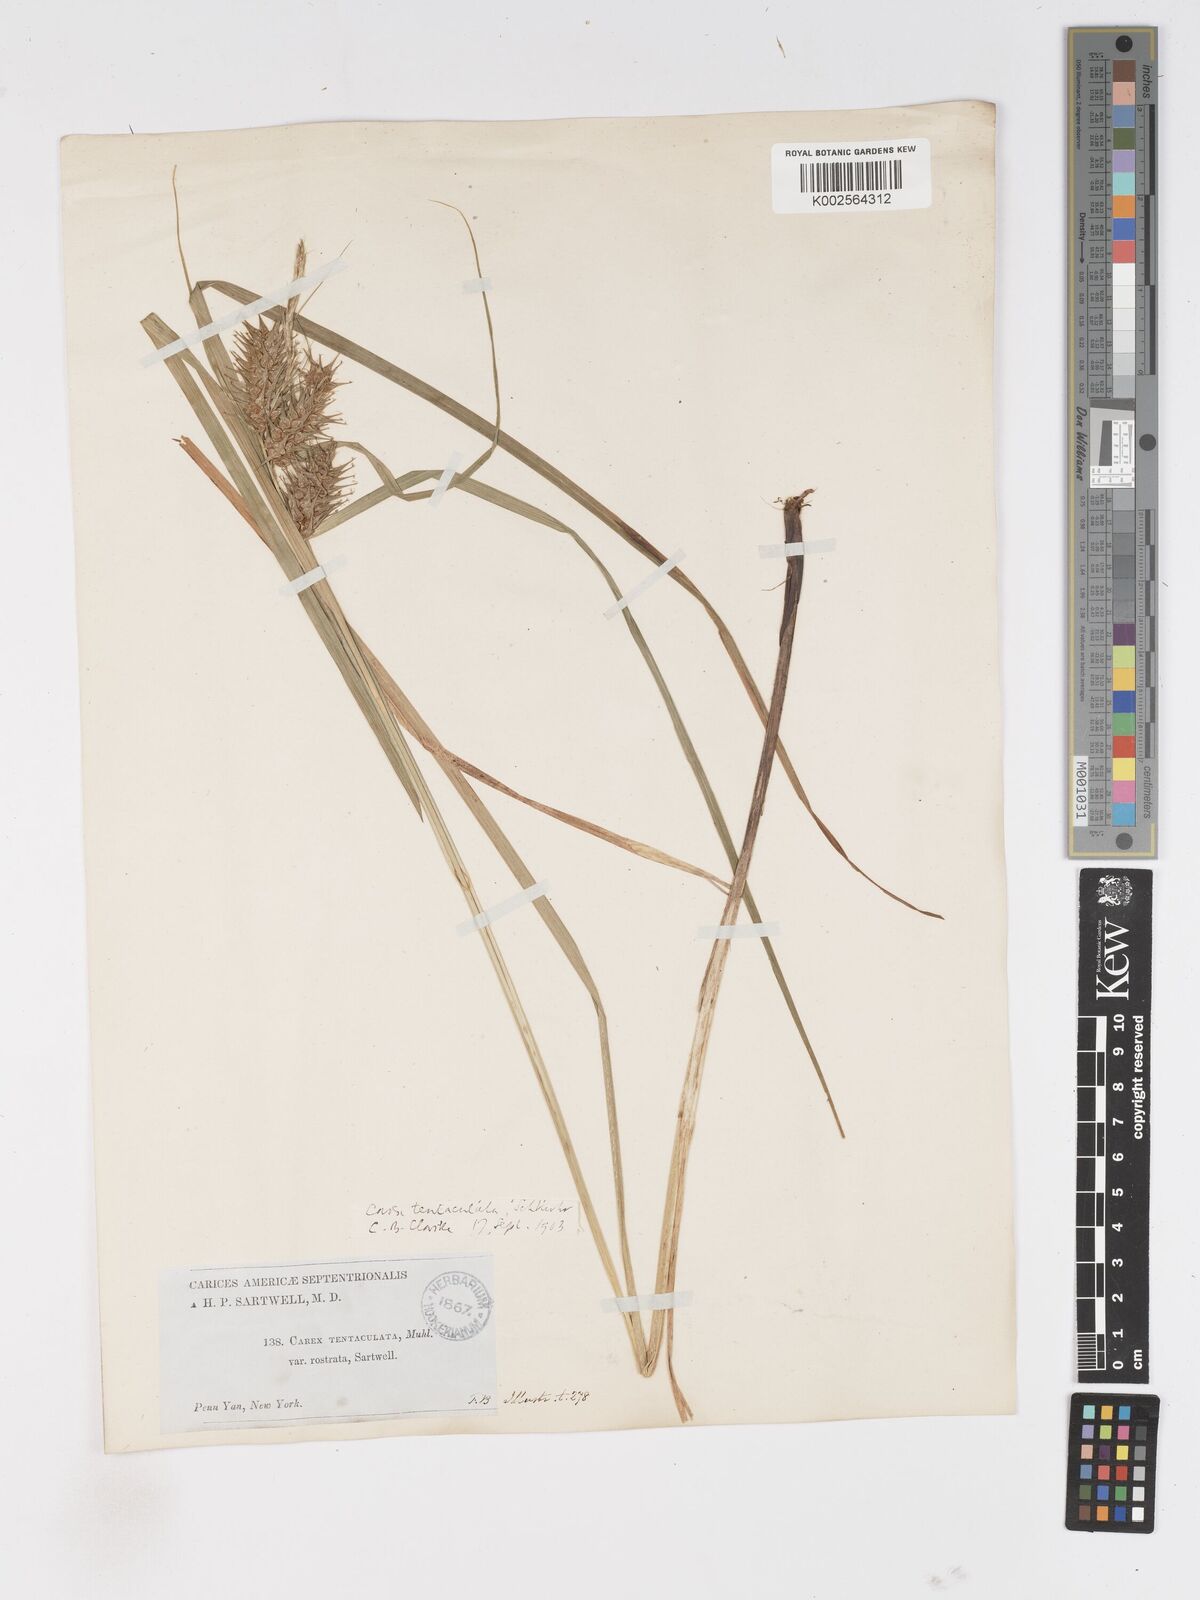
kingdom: Plantae
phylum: Tracheophyta
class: Liliopsida
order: Poales
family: Cyperaceae
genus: Carex
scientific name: Carex lurida
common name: Sallow sedge
